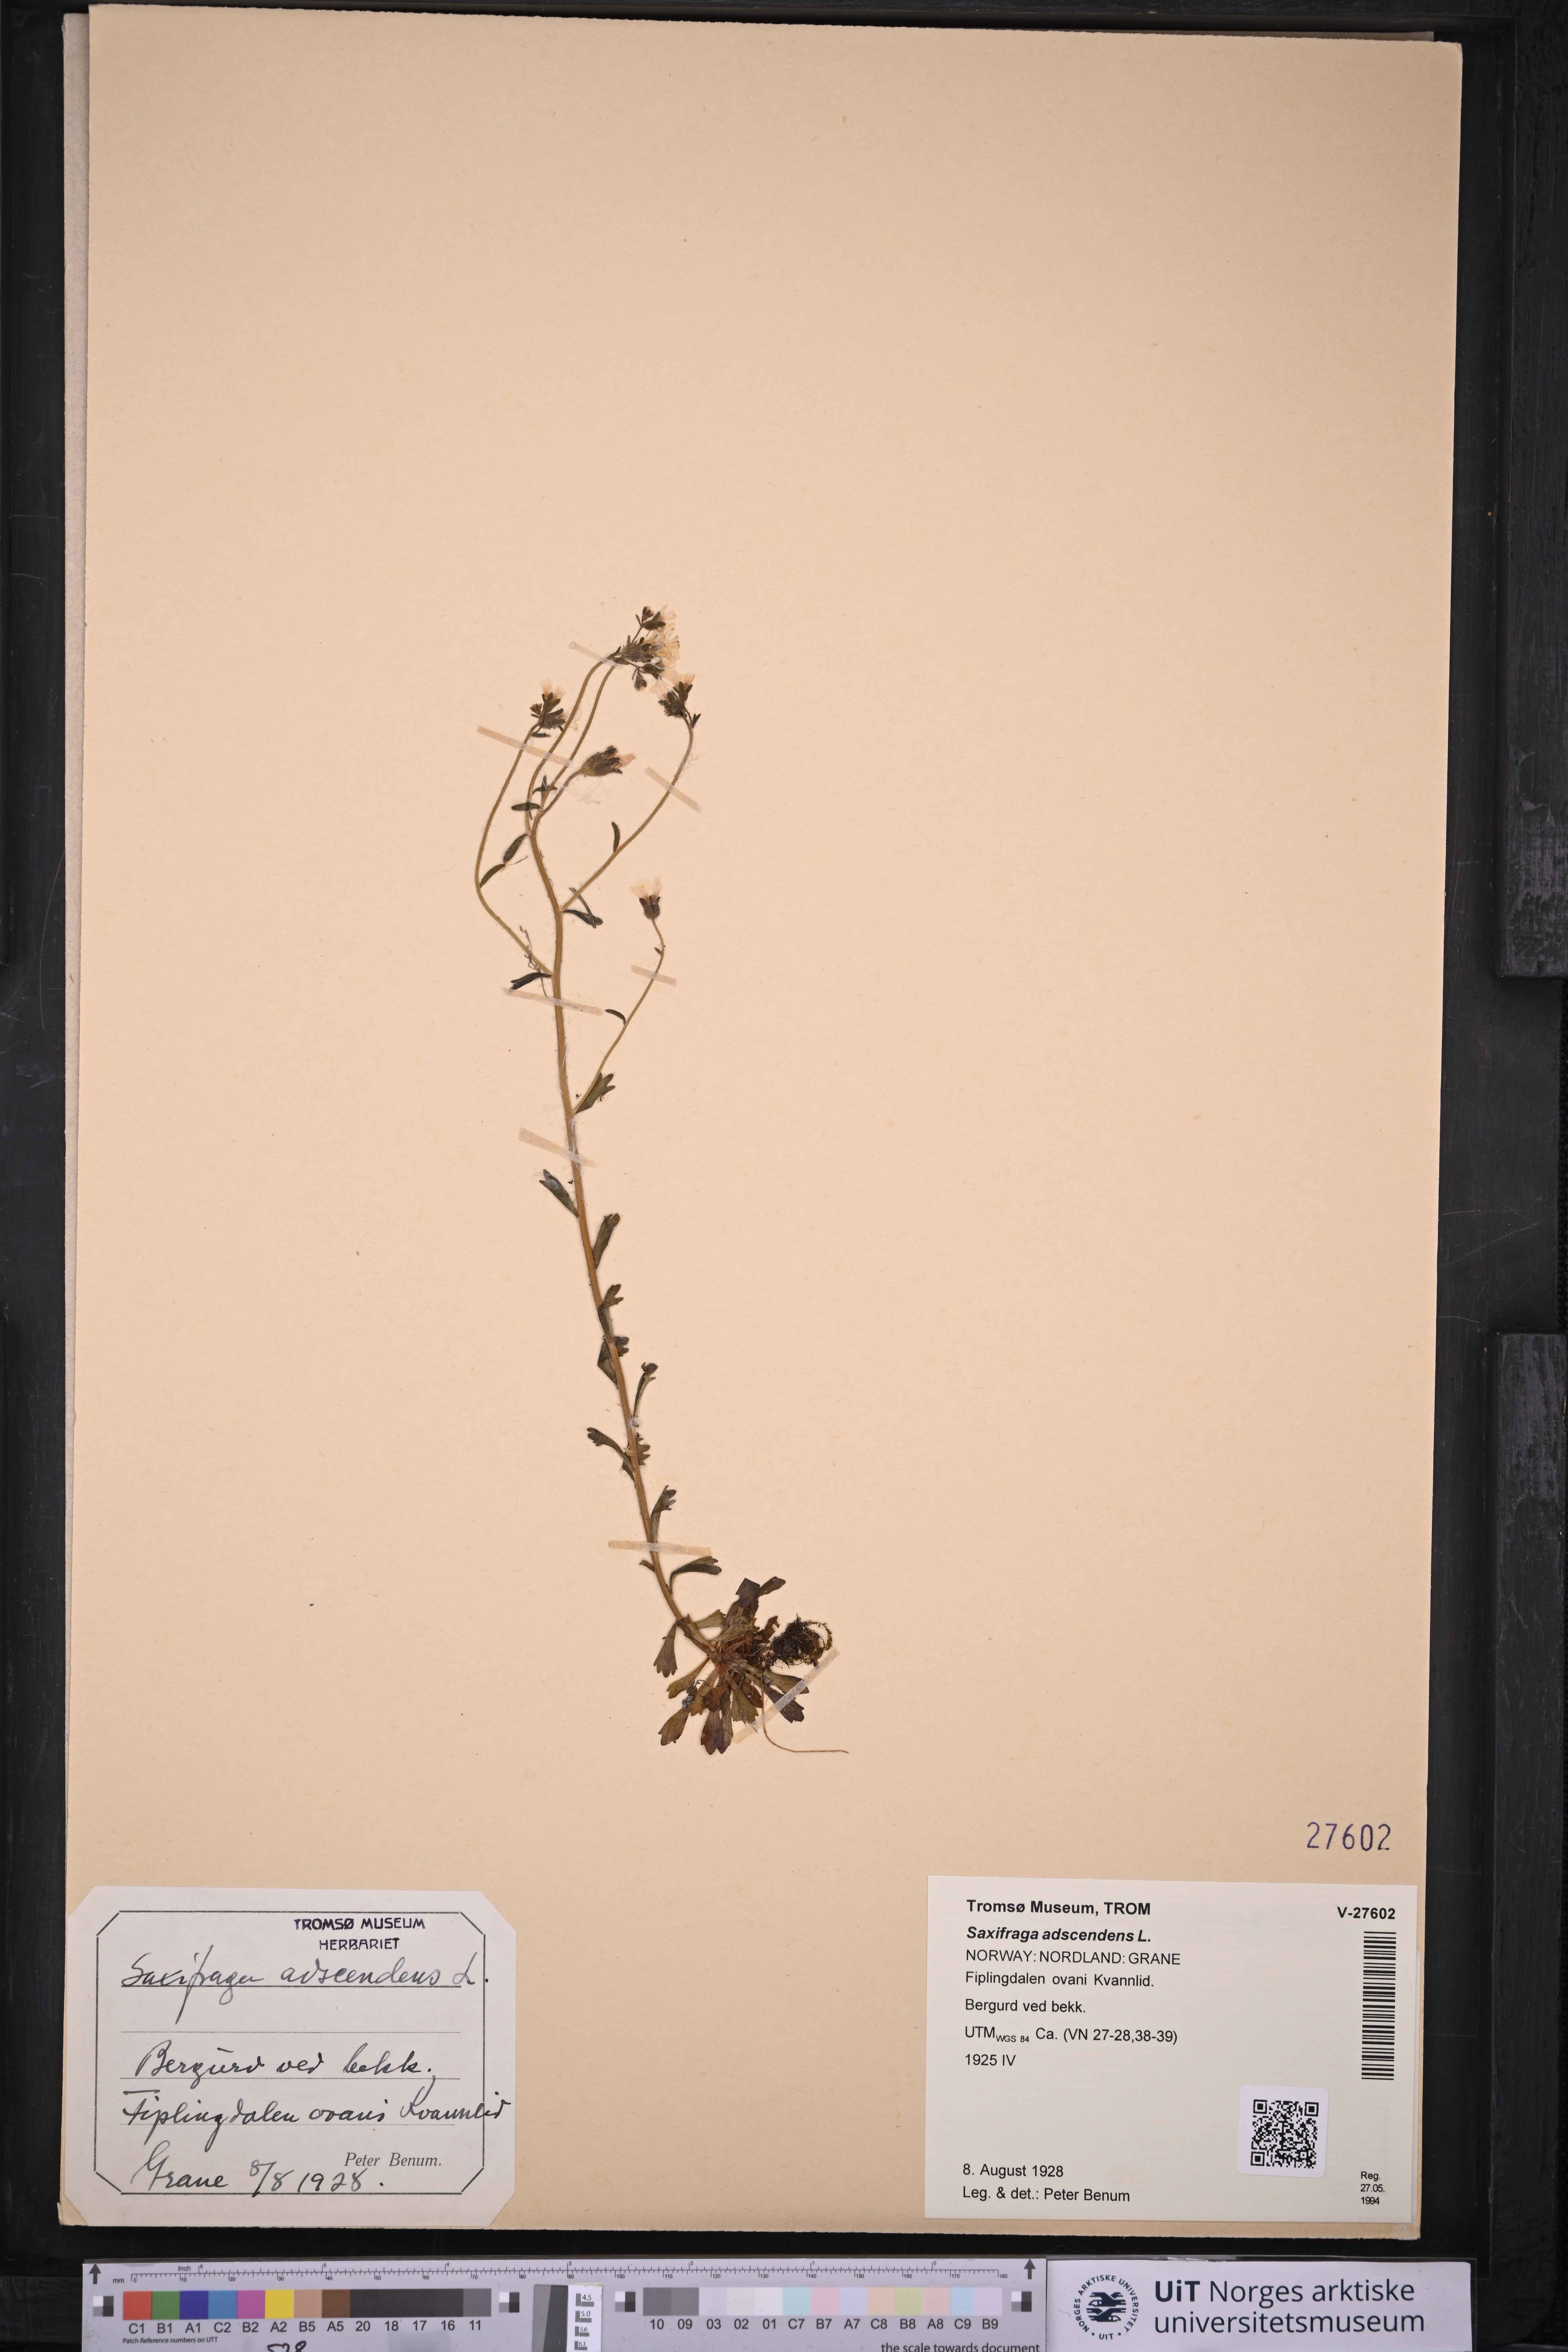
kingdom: Plantae
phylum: Tracheophyta
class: Magnoliopsida
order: Saxifragales
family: Saxifragaceae
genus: Saxifraga
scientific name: Saxifraga adscendens
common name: Ascending saxifrage
